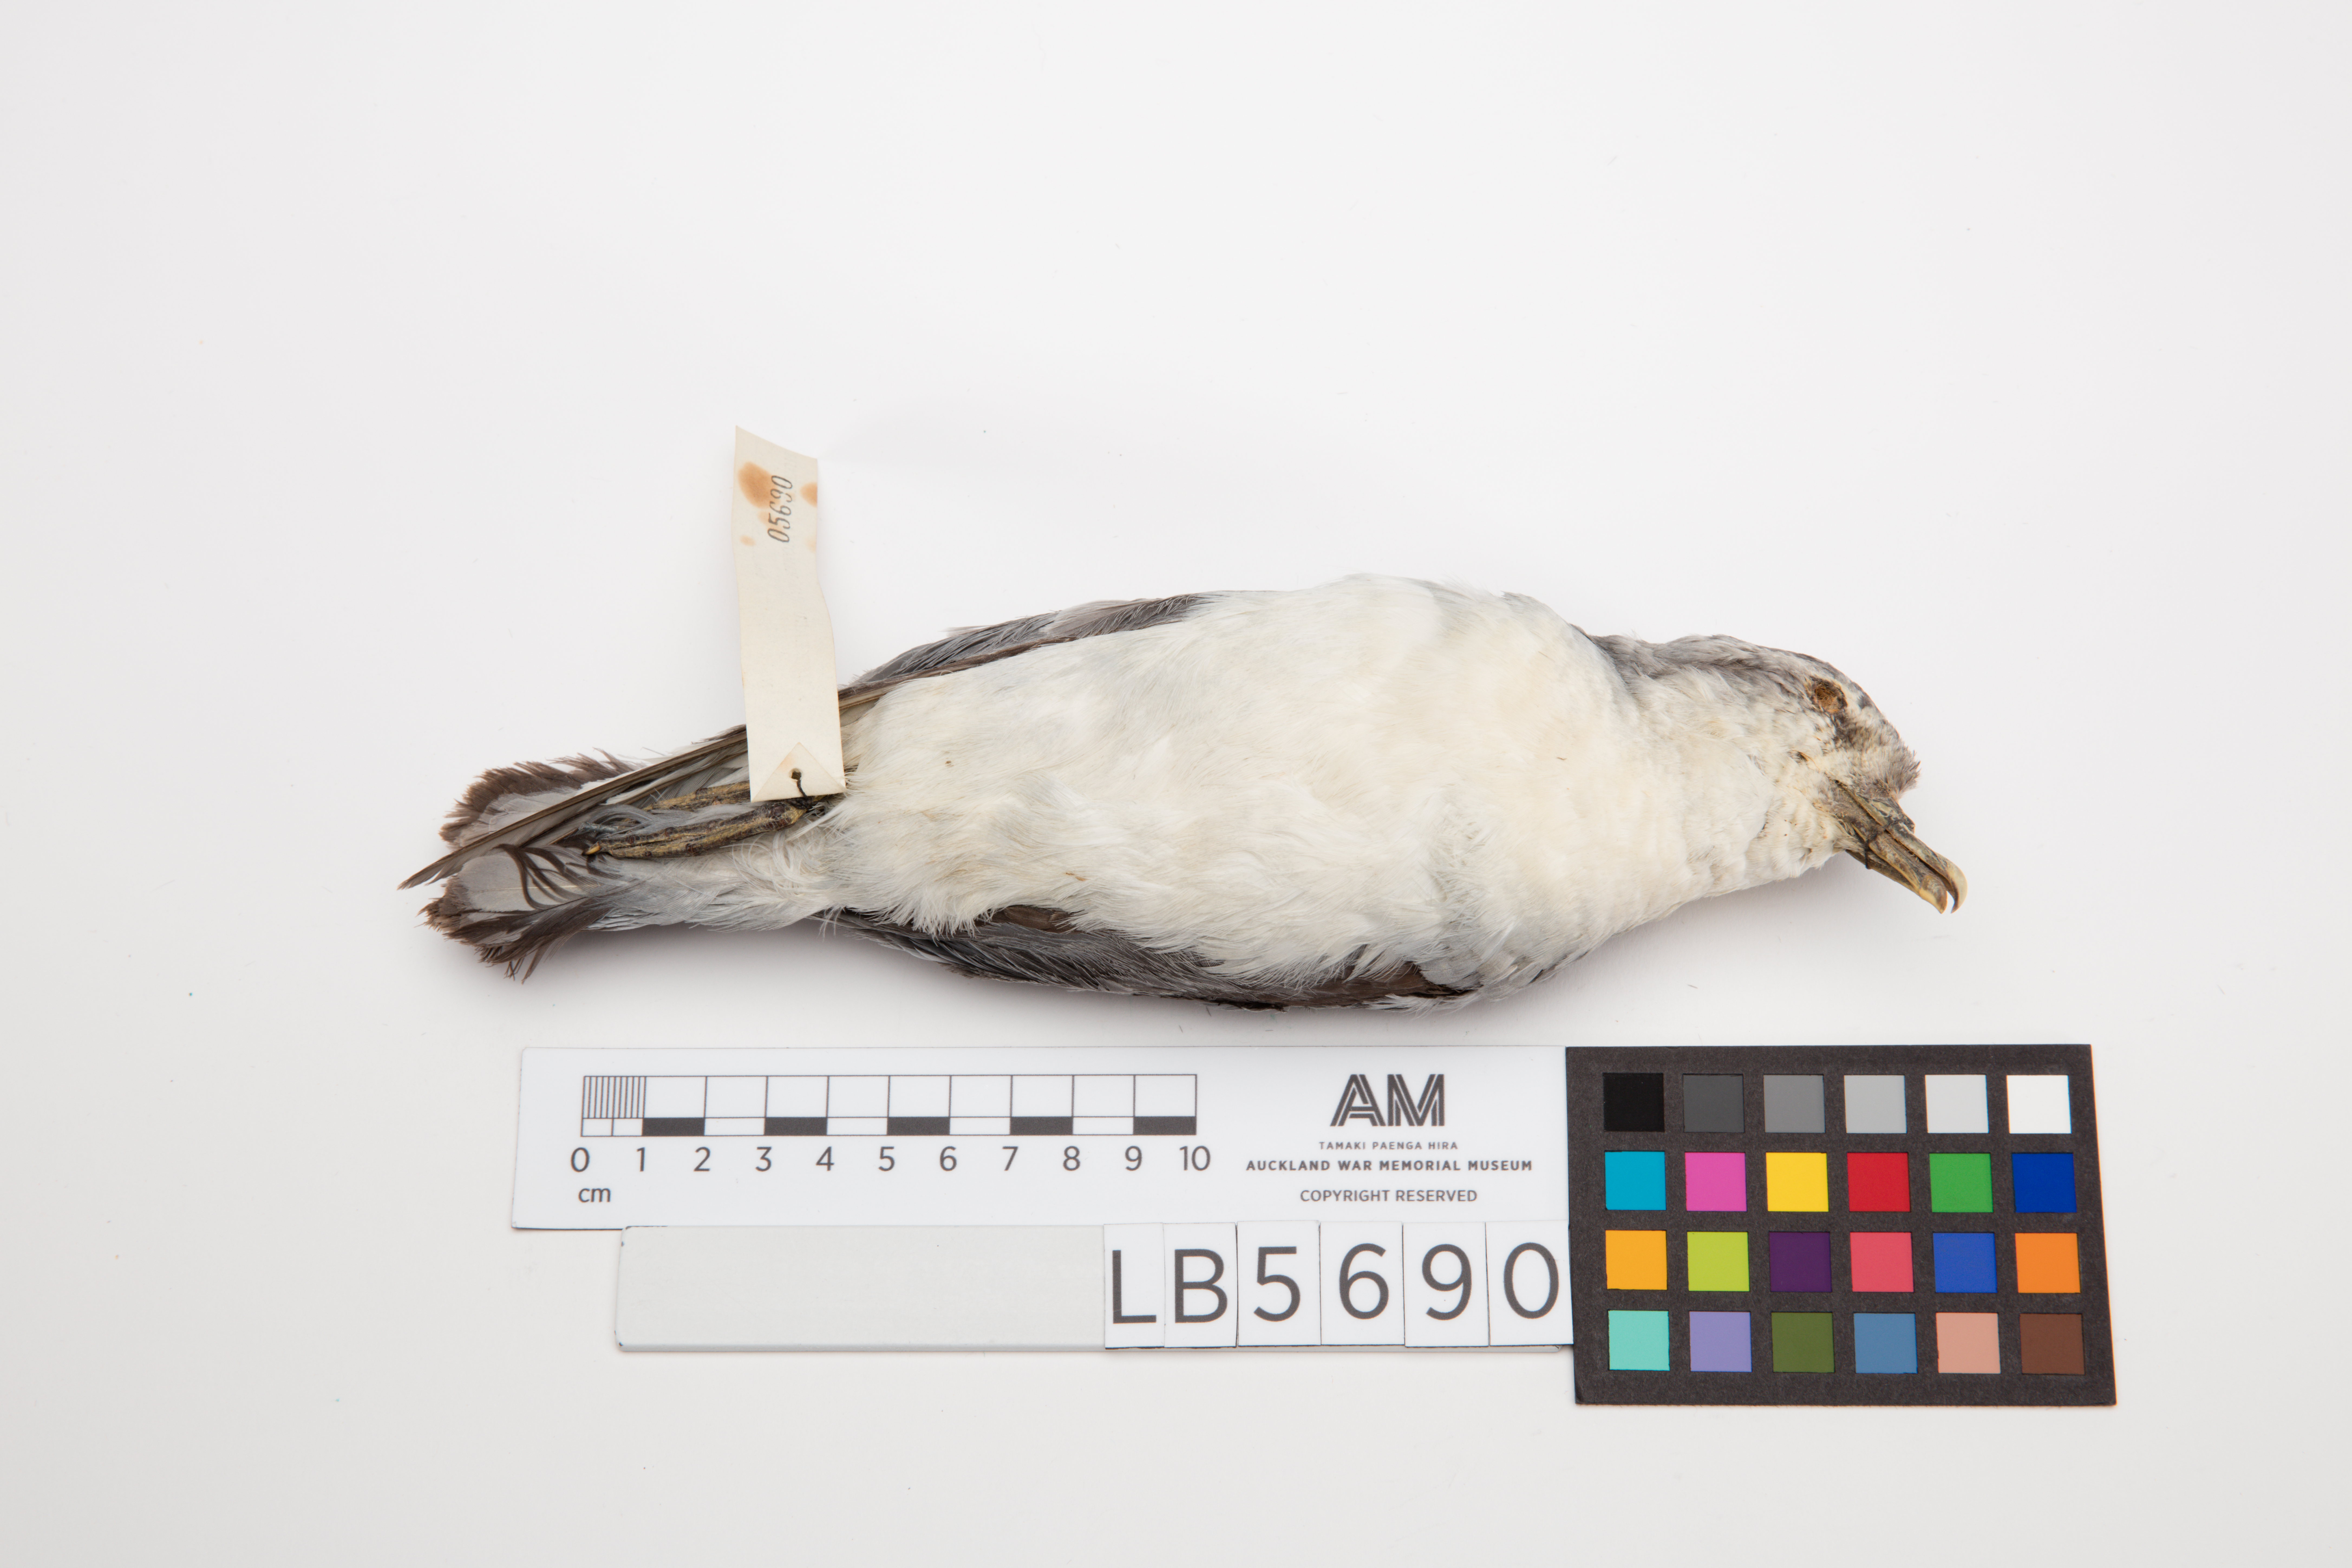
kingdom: Animalia
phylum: Chordata
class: Aves
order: Procellariiformes
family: Procellariidae
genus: Pachyptila
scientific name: Pachyptila turtur
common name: Fairy prion
